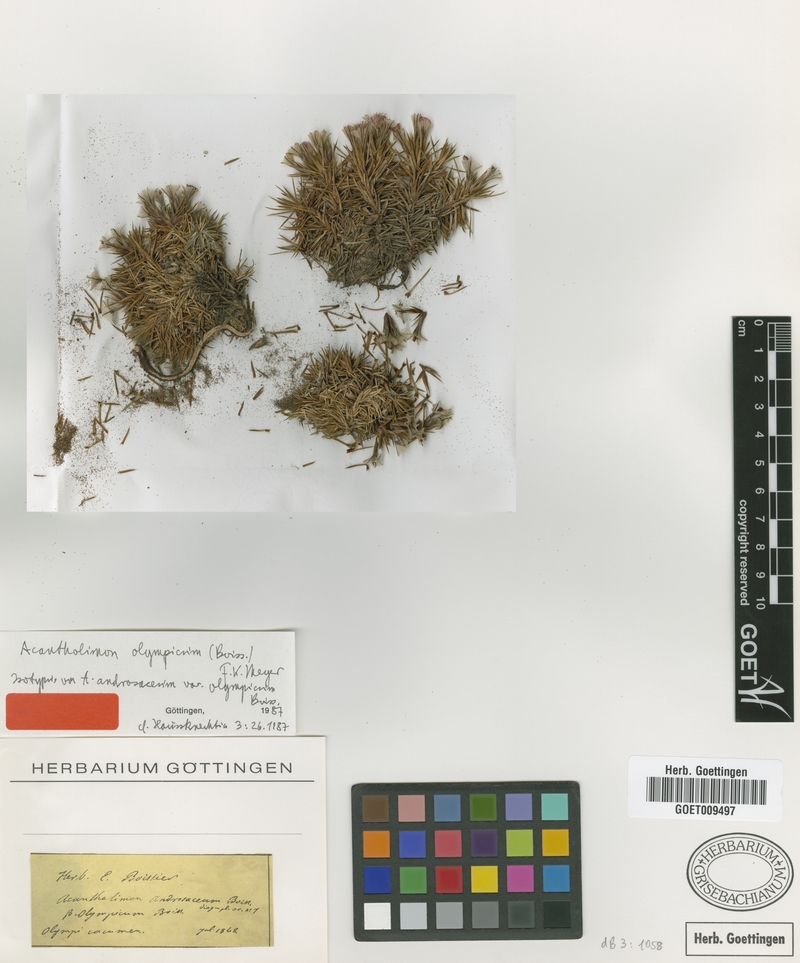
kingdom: Plantae
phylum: Tracheophyta
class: Magnoliopsida
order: Caryophyllales
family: Plumbaginaceae
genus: Acantholimon
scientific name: Acantholimon ulicinum
